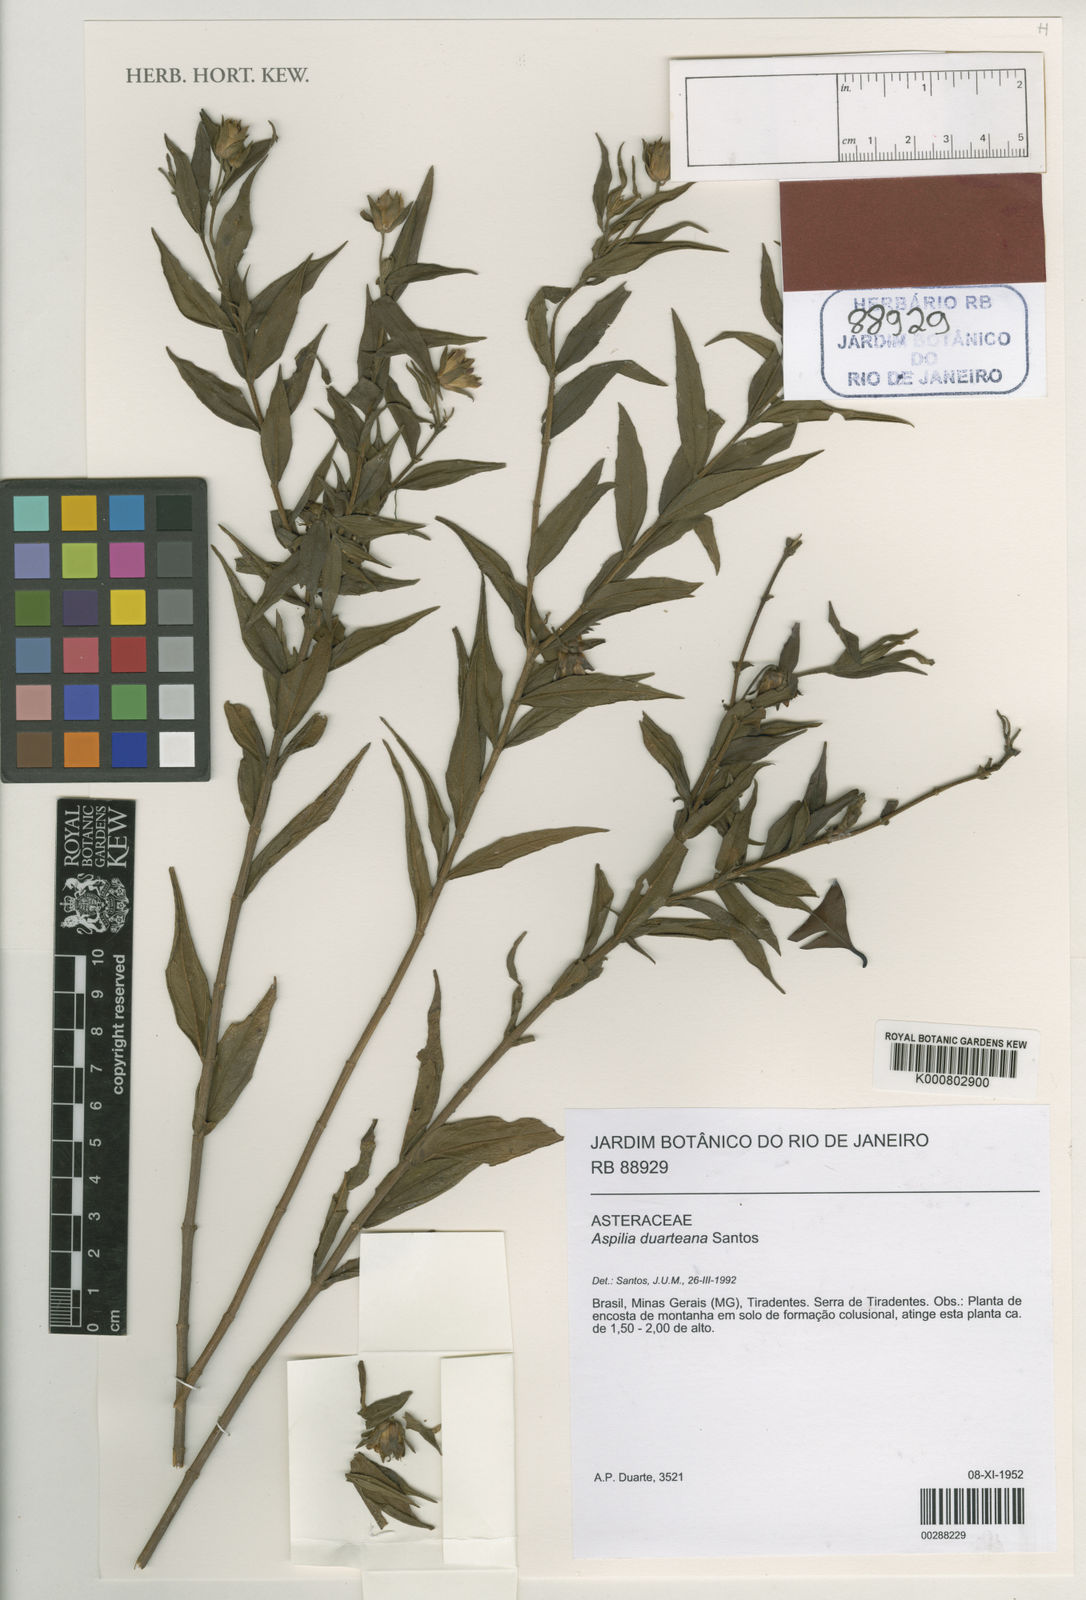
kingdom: Plantae
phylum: Tracheophyta
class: Magnoliopsida
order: Asterales
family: Asteraceae
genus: Aspilia
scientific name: Aspilia duarteana
